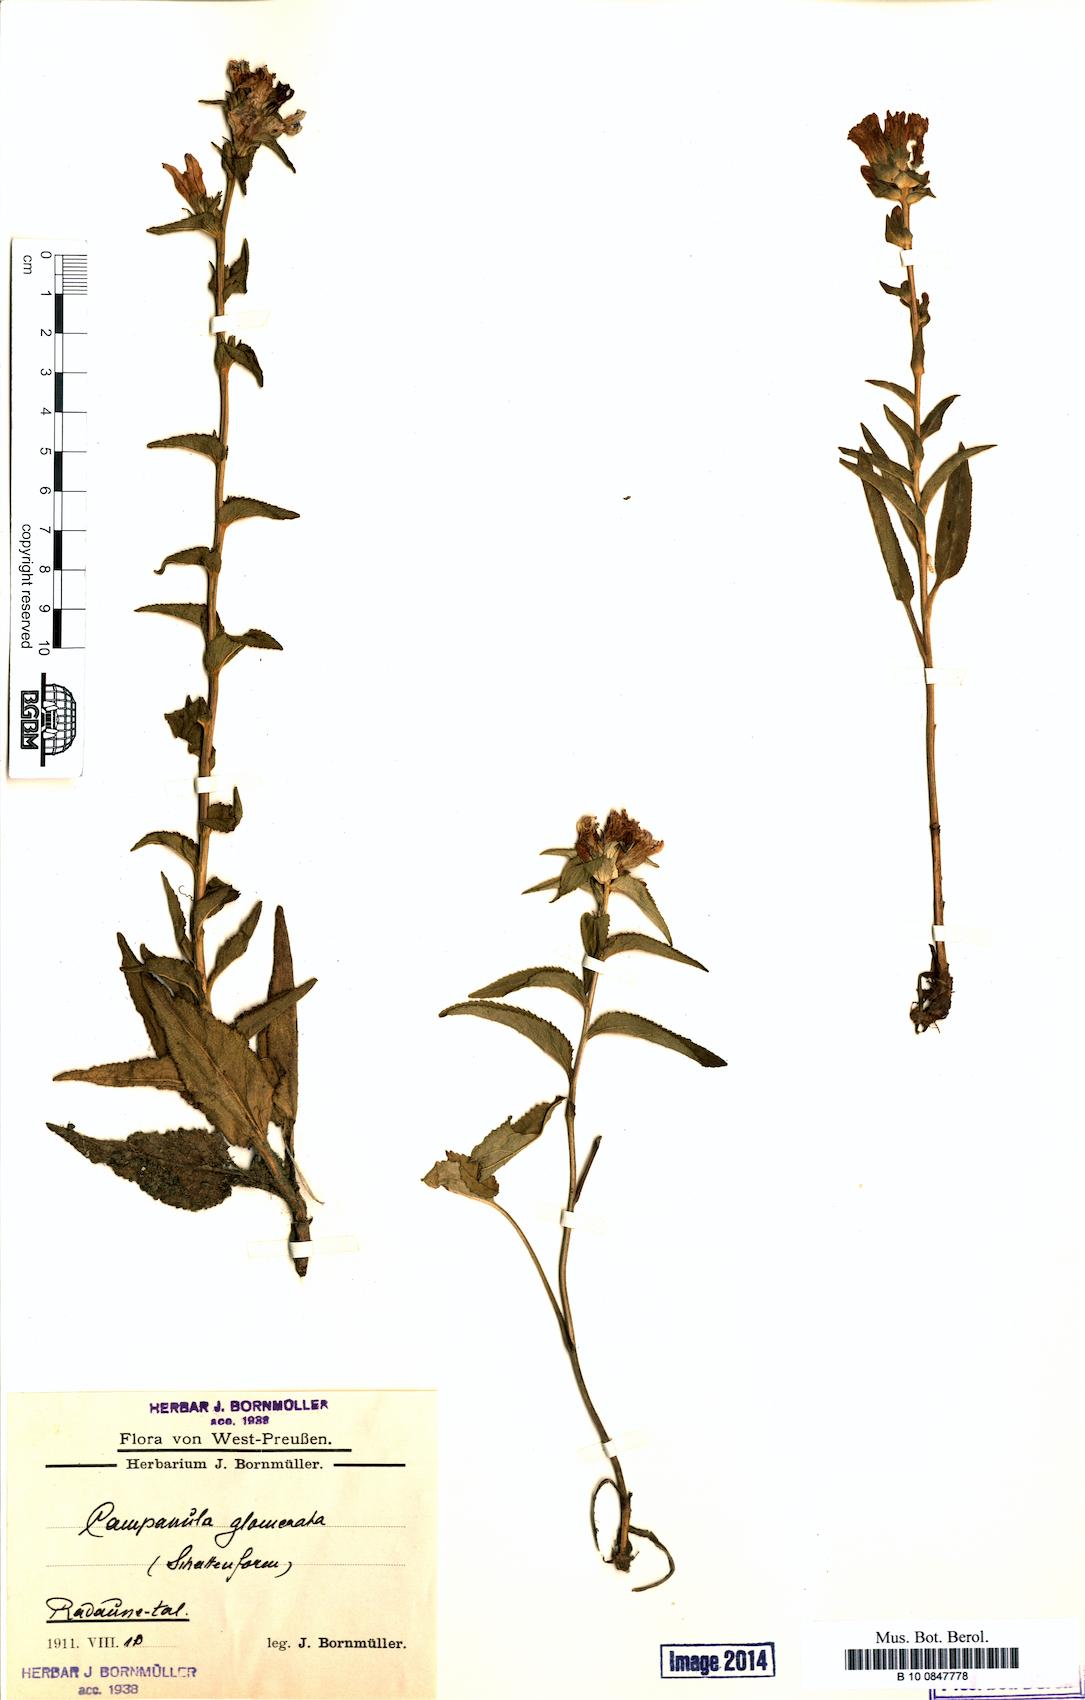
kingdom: Plantae
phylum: Tracheophyta
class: Magnoliopsida
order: Asterales
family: Campanulaceae
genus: Campanula
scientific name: Campanula glomerata
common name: Clustered bellflower
